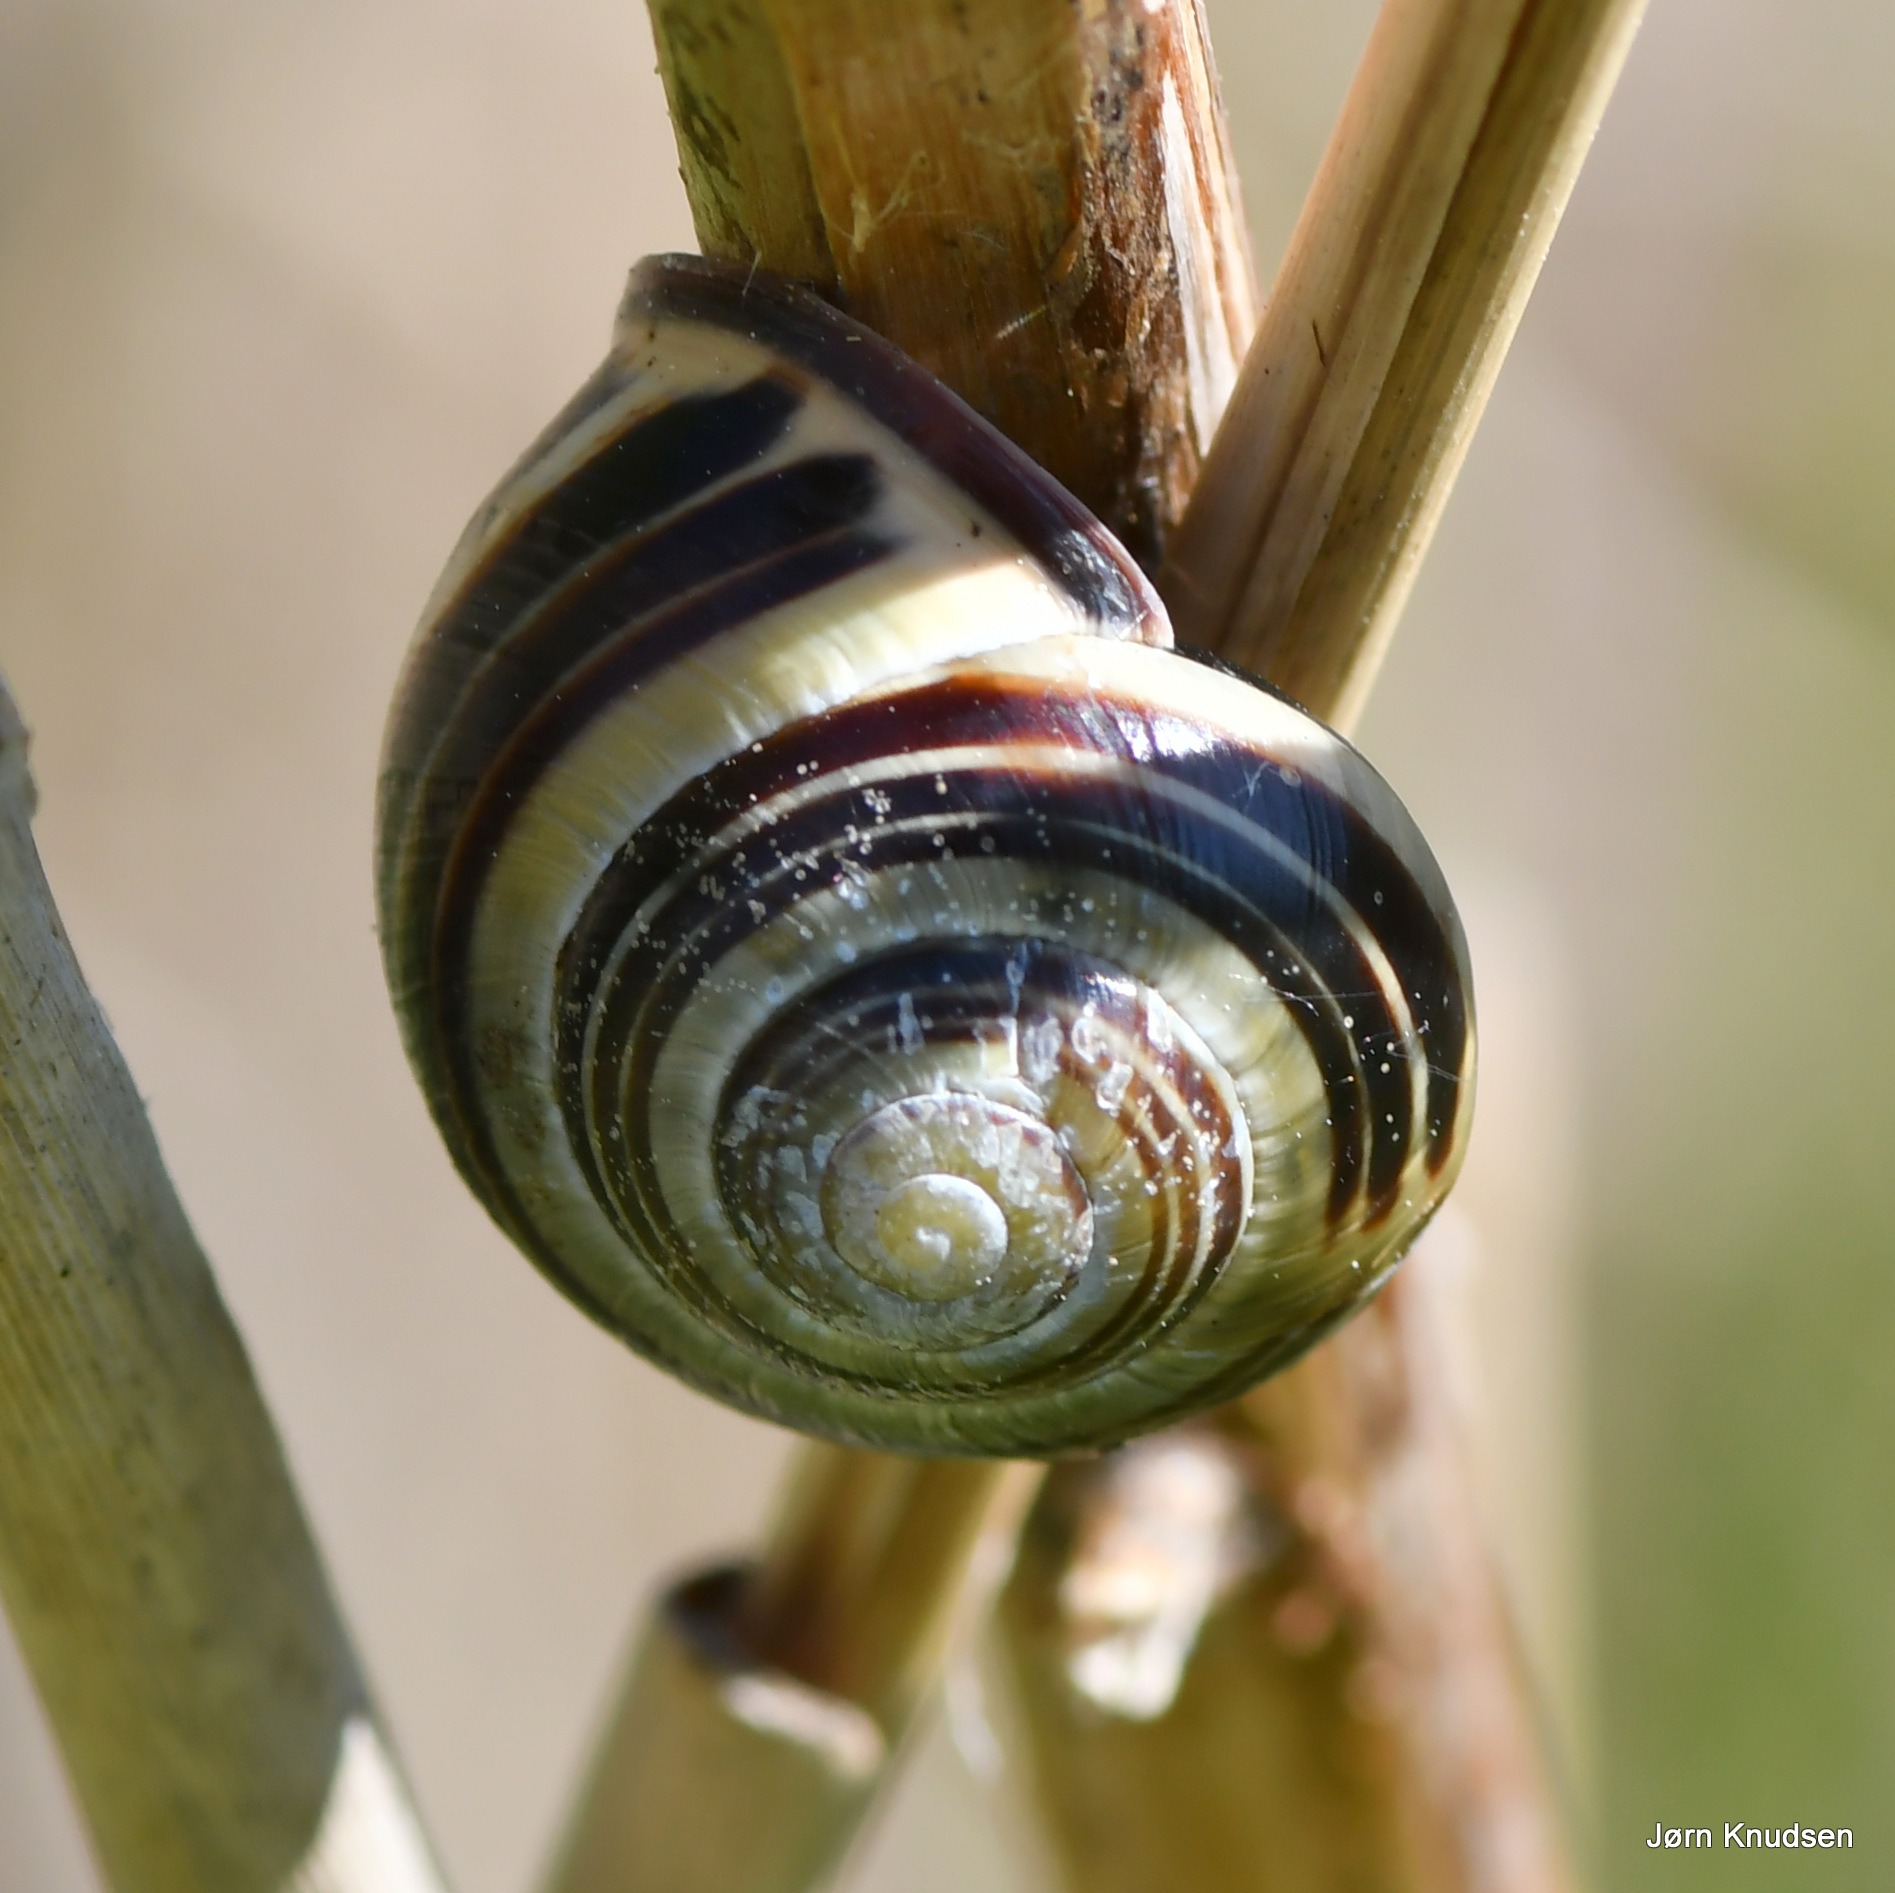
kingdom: Animalia
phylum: Mollusca
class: Gastropoda
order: Stylommatophora
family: Helicidae
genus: Cepaea
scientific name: Cepaea nemoralis
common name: Lundsnegl
